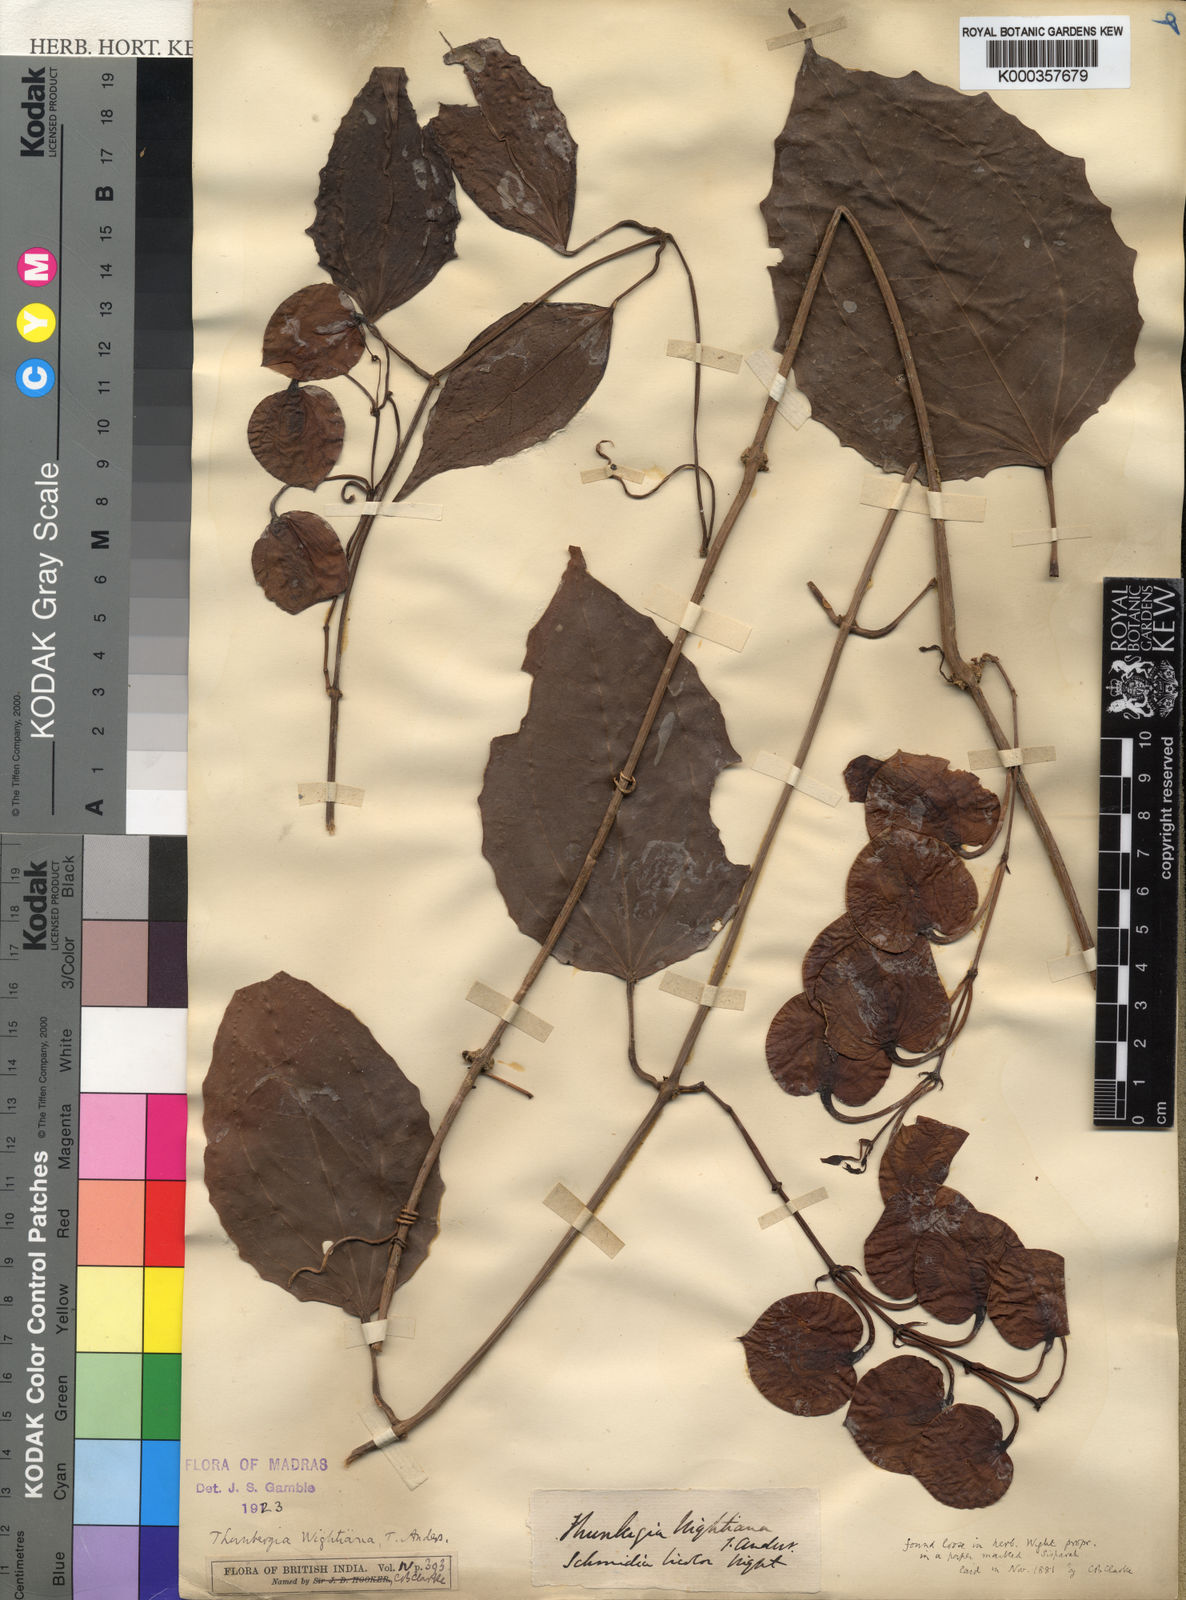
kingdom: Plantae
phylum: Tracheophyta
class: Magnoliopsida
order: Lamiales
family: Acanthaceae
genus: Thunbergia
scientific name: Thunbergia bicolor
